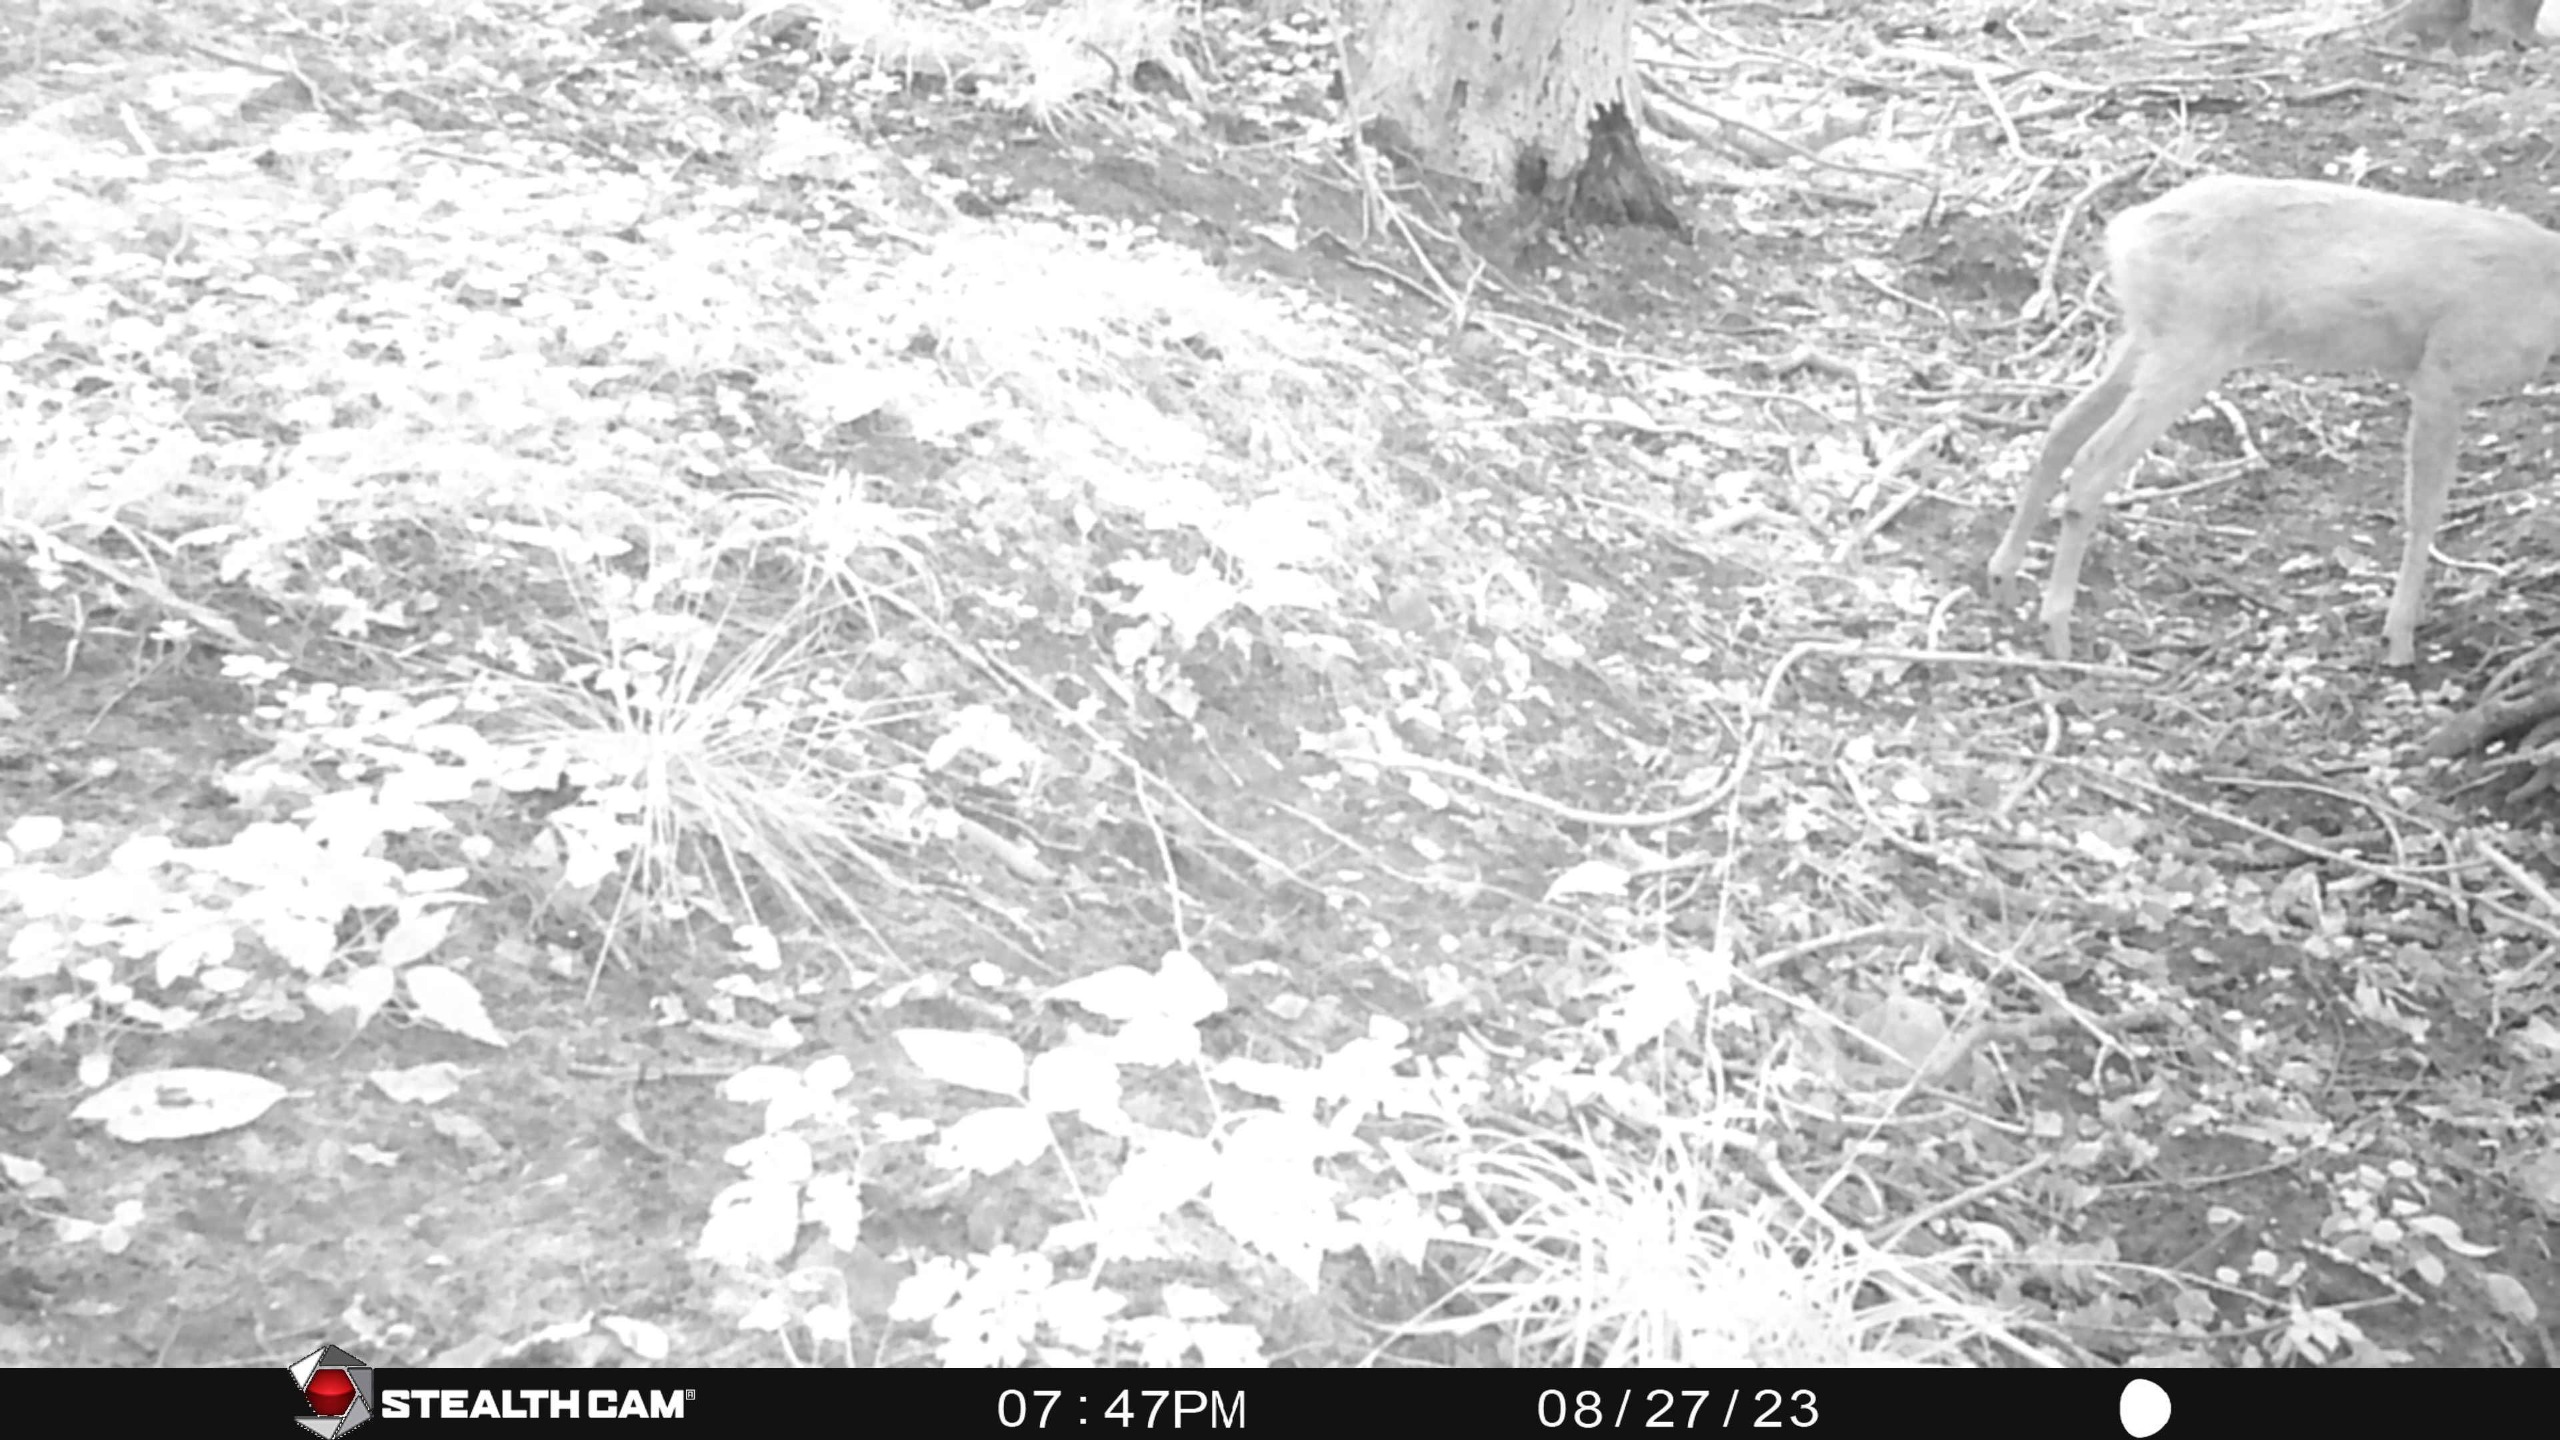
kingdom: Animalia
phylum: Chordata
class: Mammalia
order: Artiodactyla
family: Cervidae
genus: Capreolus
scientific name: Capreolus capreolus
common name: Rådyr
